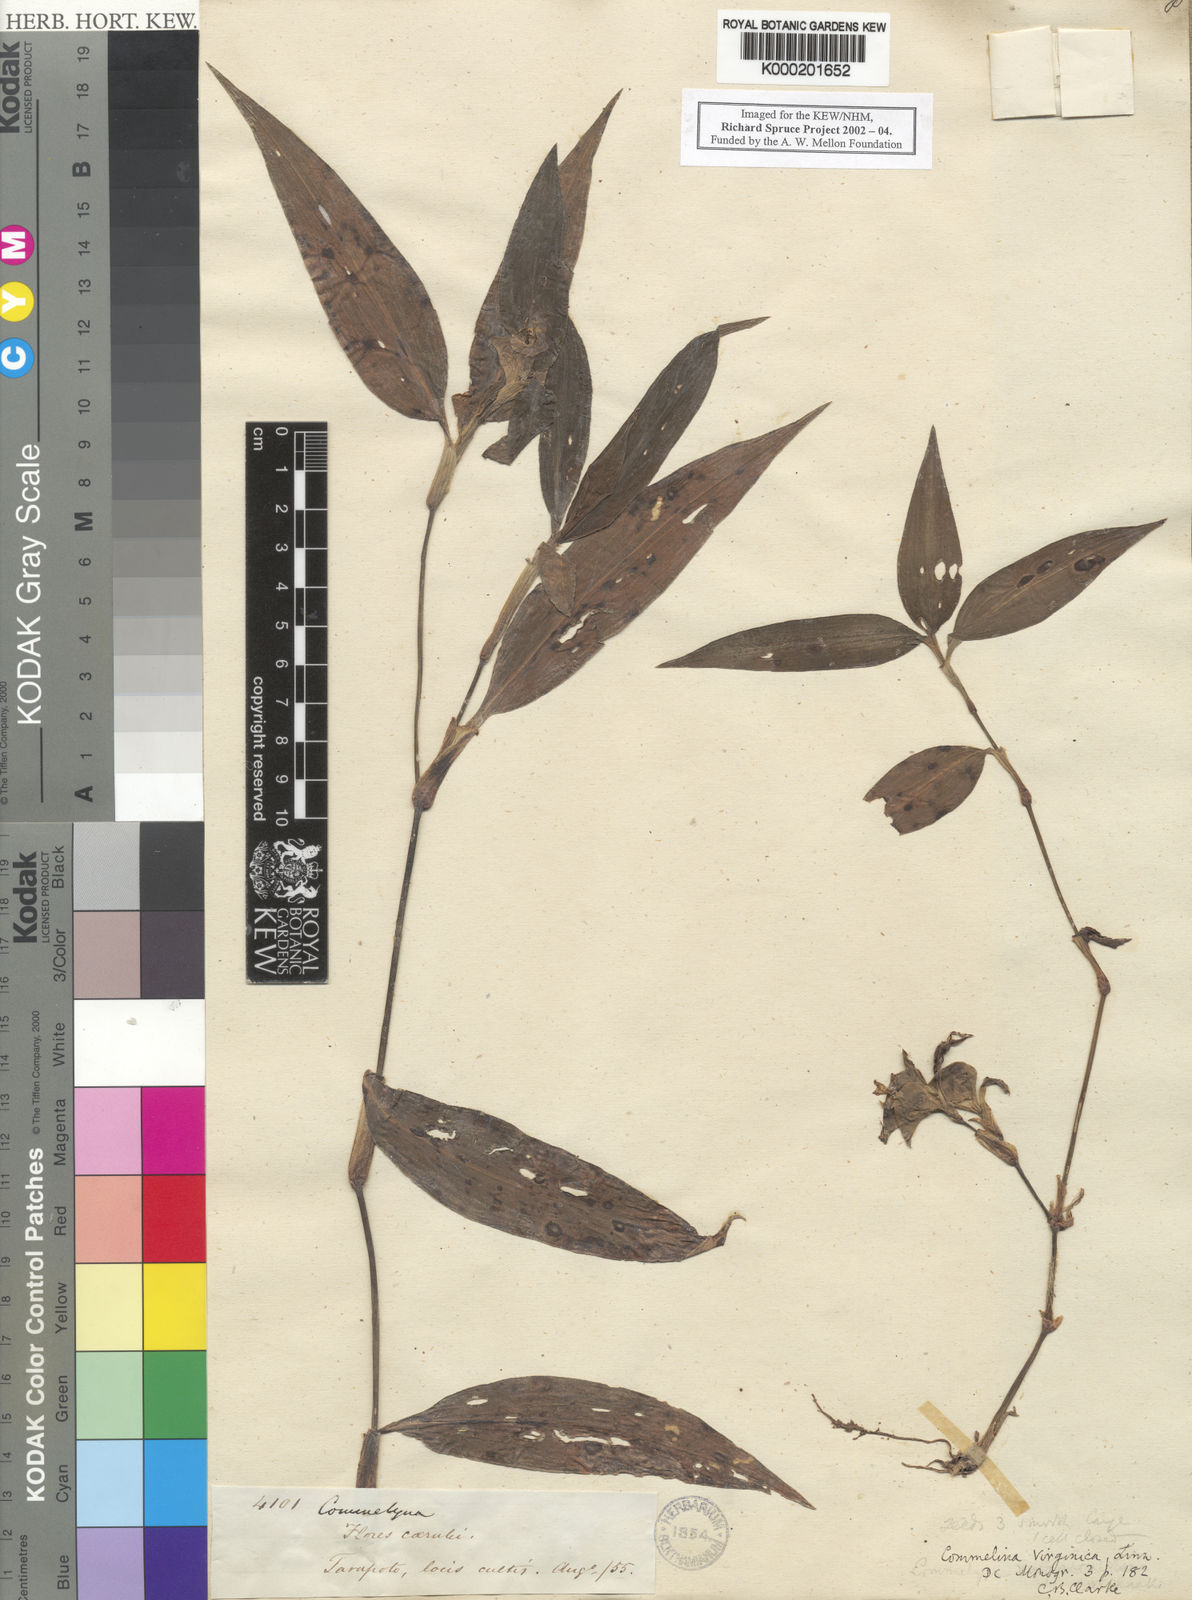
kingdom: Plantae
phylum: Tracheophyta
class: Liliopsida
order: Commelinales
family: Commelinaceae
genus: Commelina
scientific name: Commelina virginica
